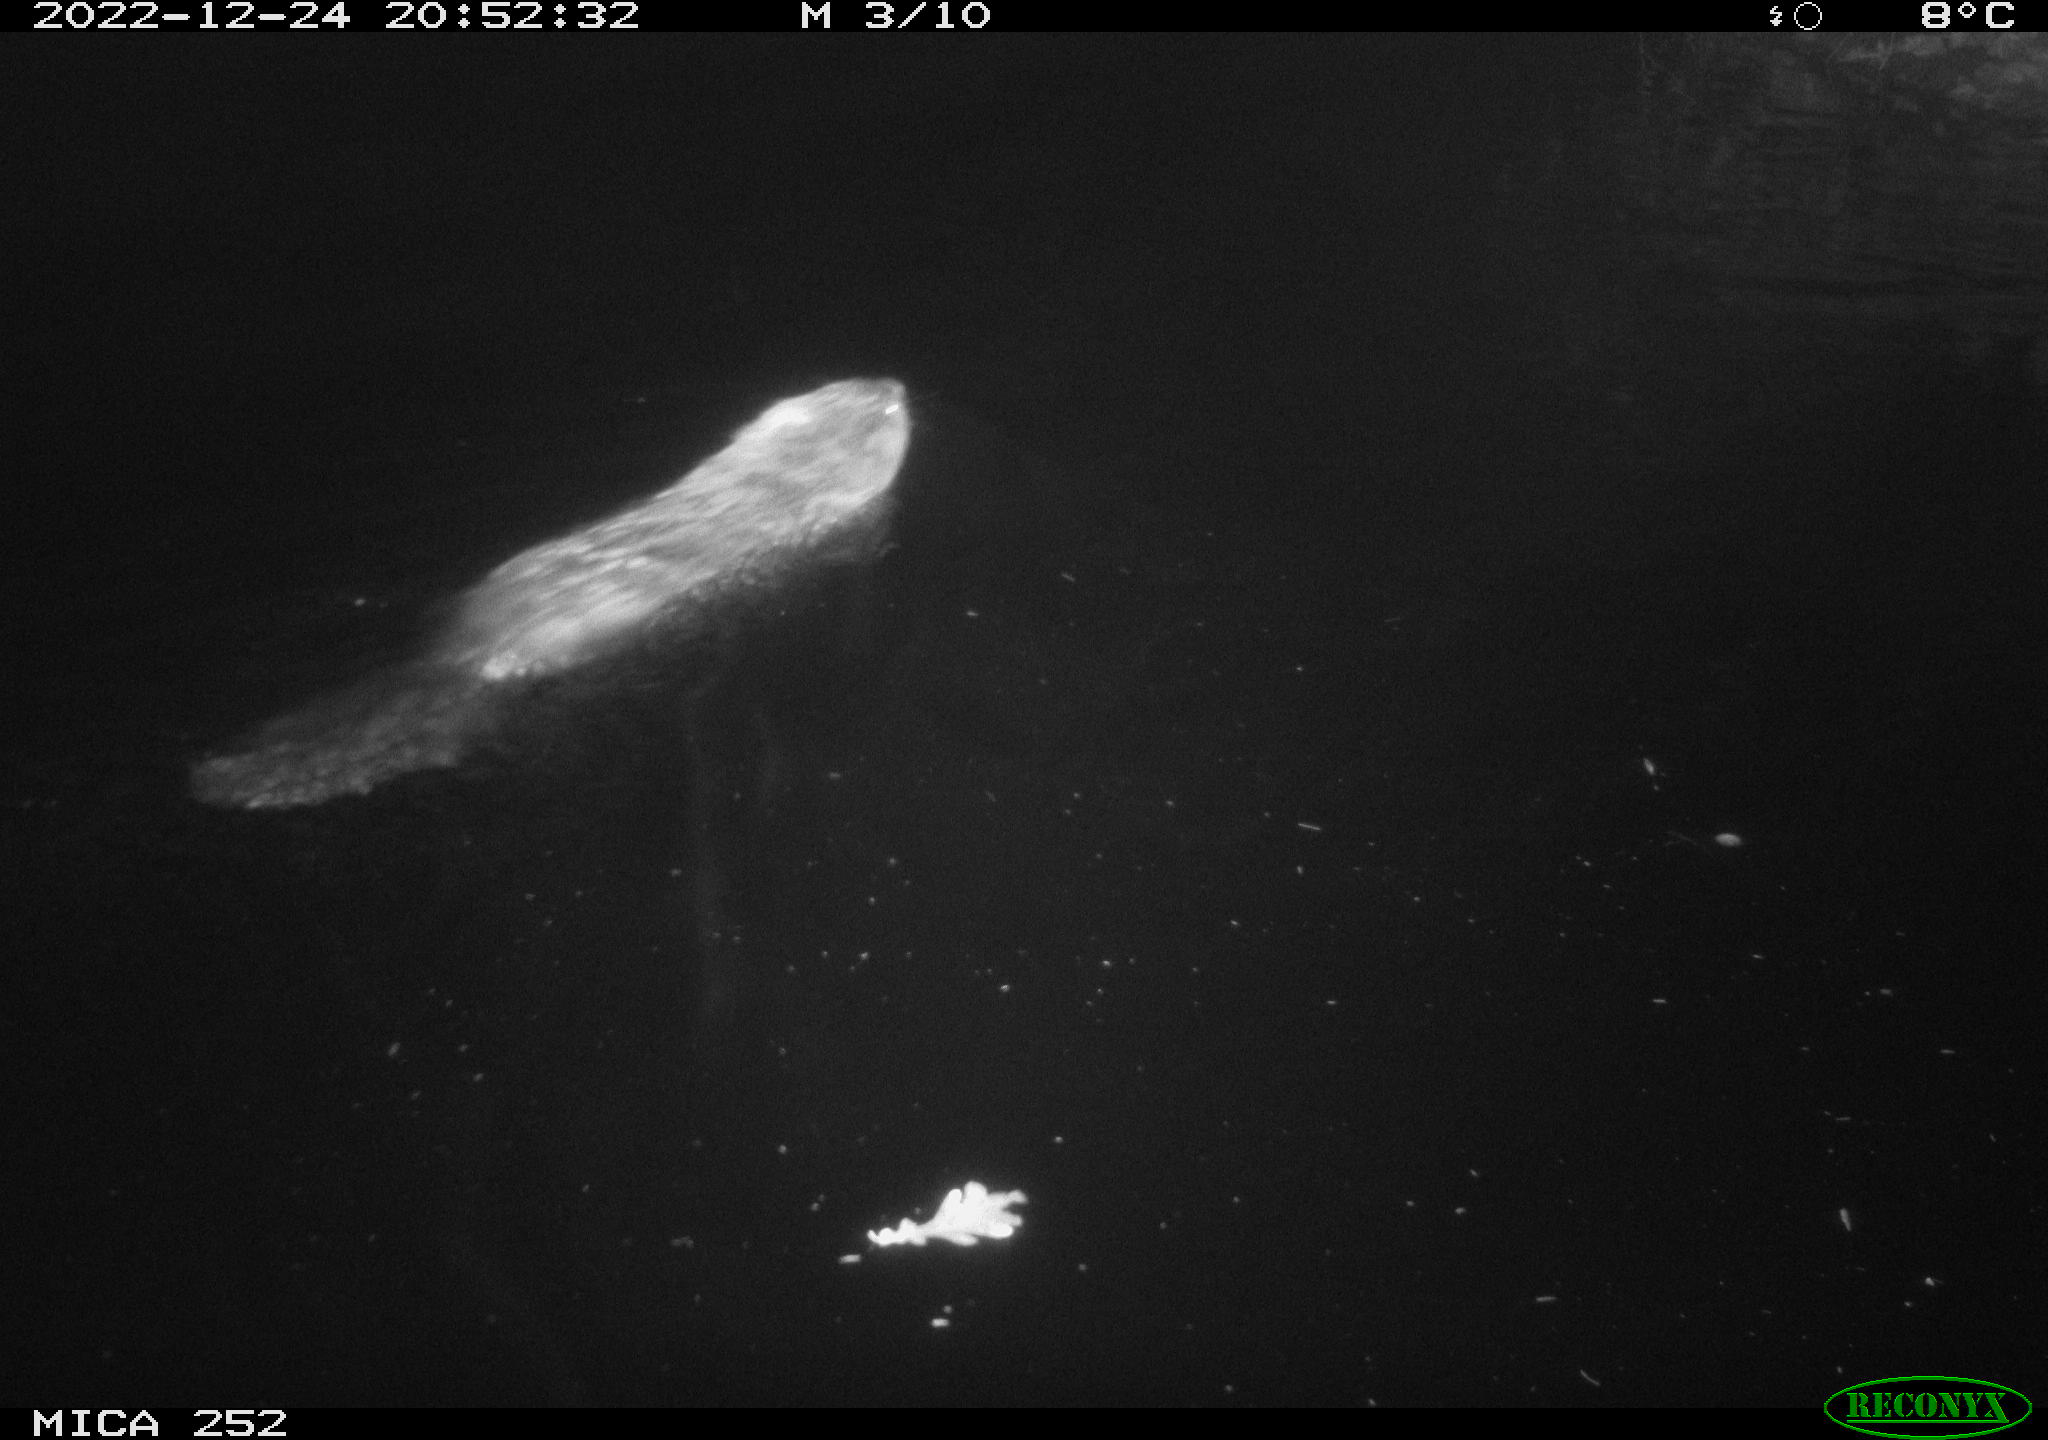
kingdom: Animalia
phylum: Chordata
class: Mammalia
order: Rodentia
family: Castoridae
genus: Castor
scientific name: Castor fiber
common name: Eurasian beaver
